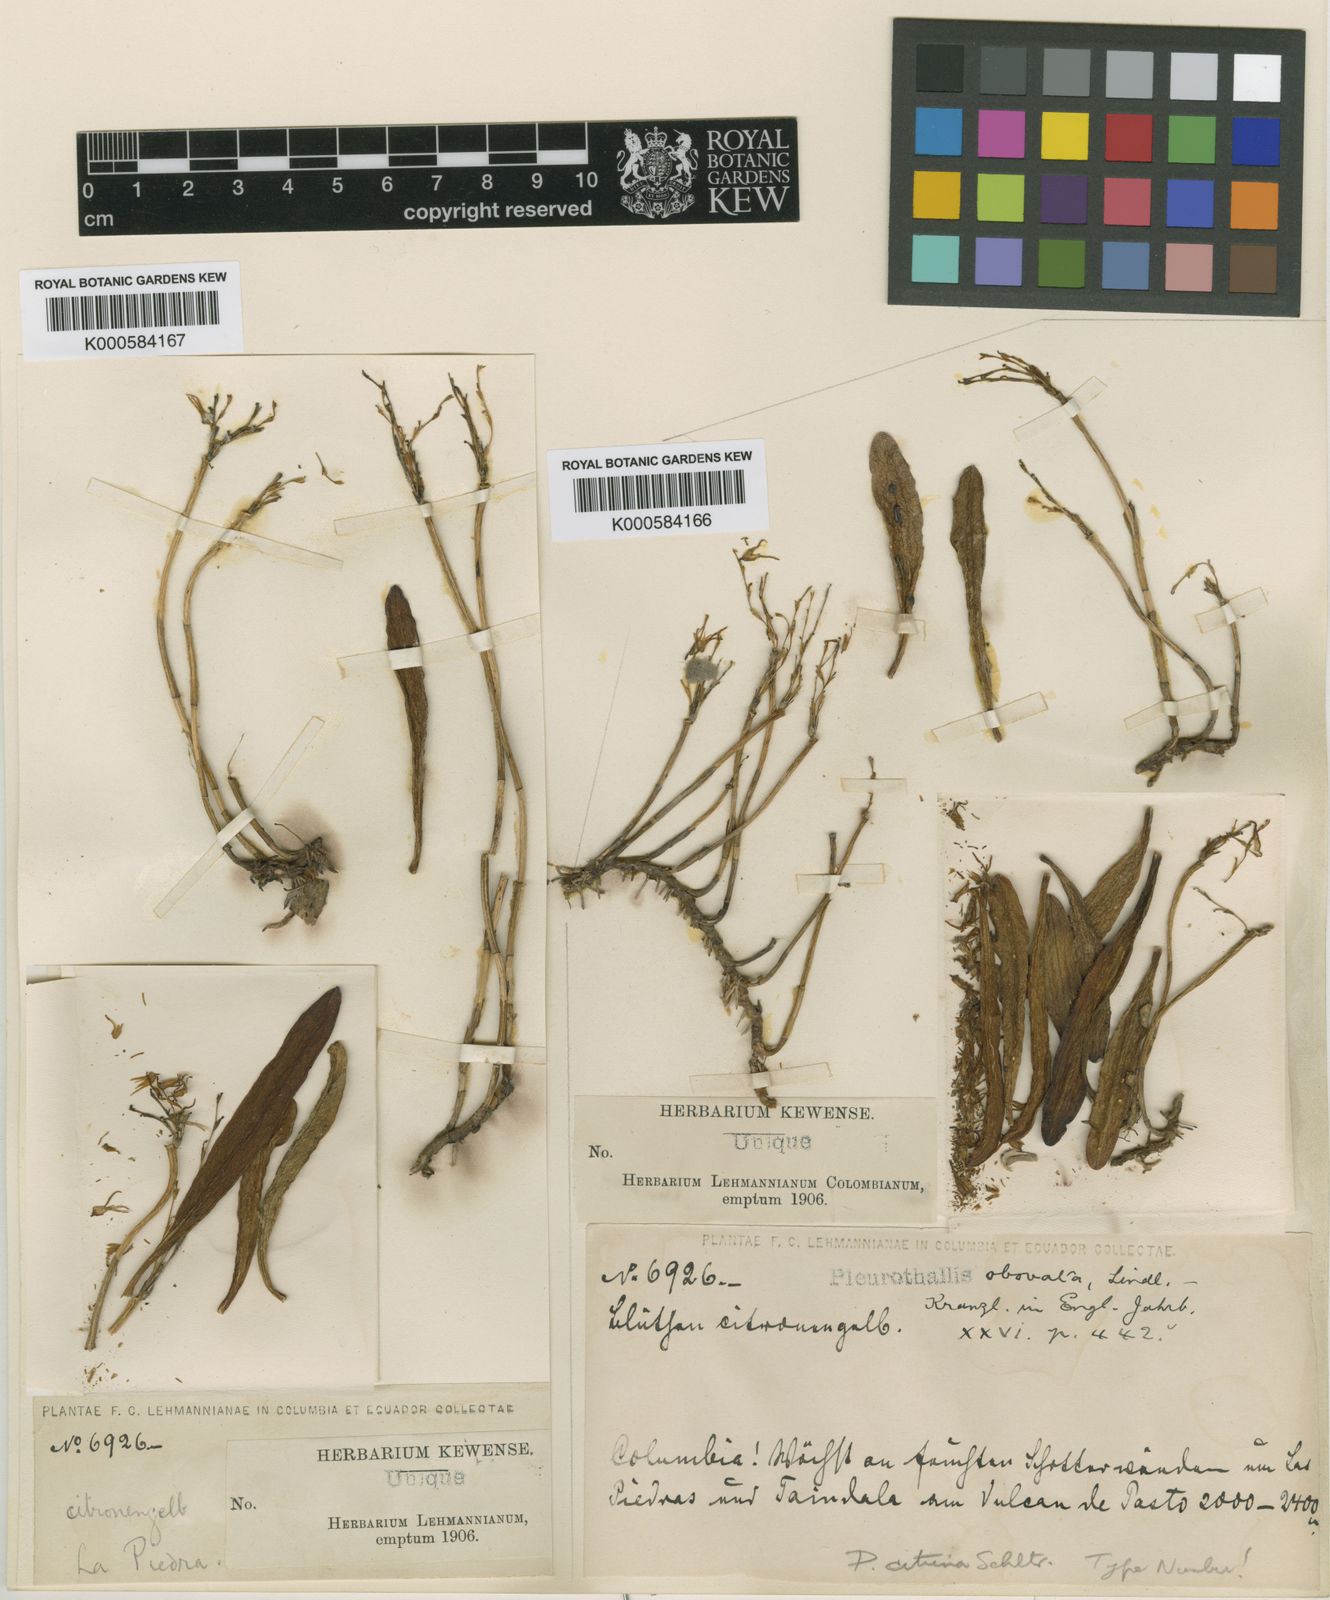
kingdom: Plantae
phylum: Tracheophyta
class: Liliopsida
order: Asparagales
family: Orchidaceae
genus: Anathallis
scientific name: Anathallis obovata
